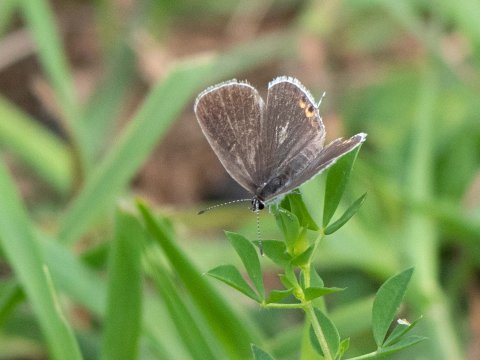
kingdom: Animalia
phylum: Arthropoda
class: Insecta
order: Lepidoptera
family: Lycaenidae
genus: Elkalyce
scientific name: Elkalyce comyntas
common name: Eastern Tailed-Blue
